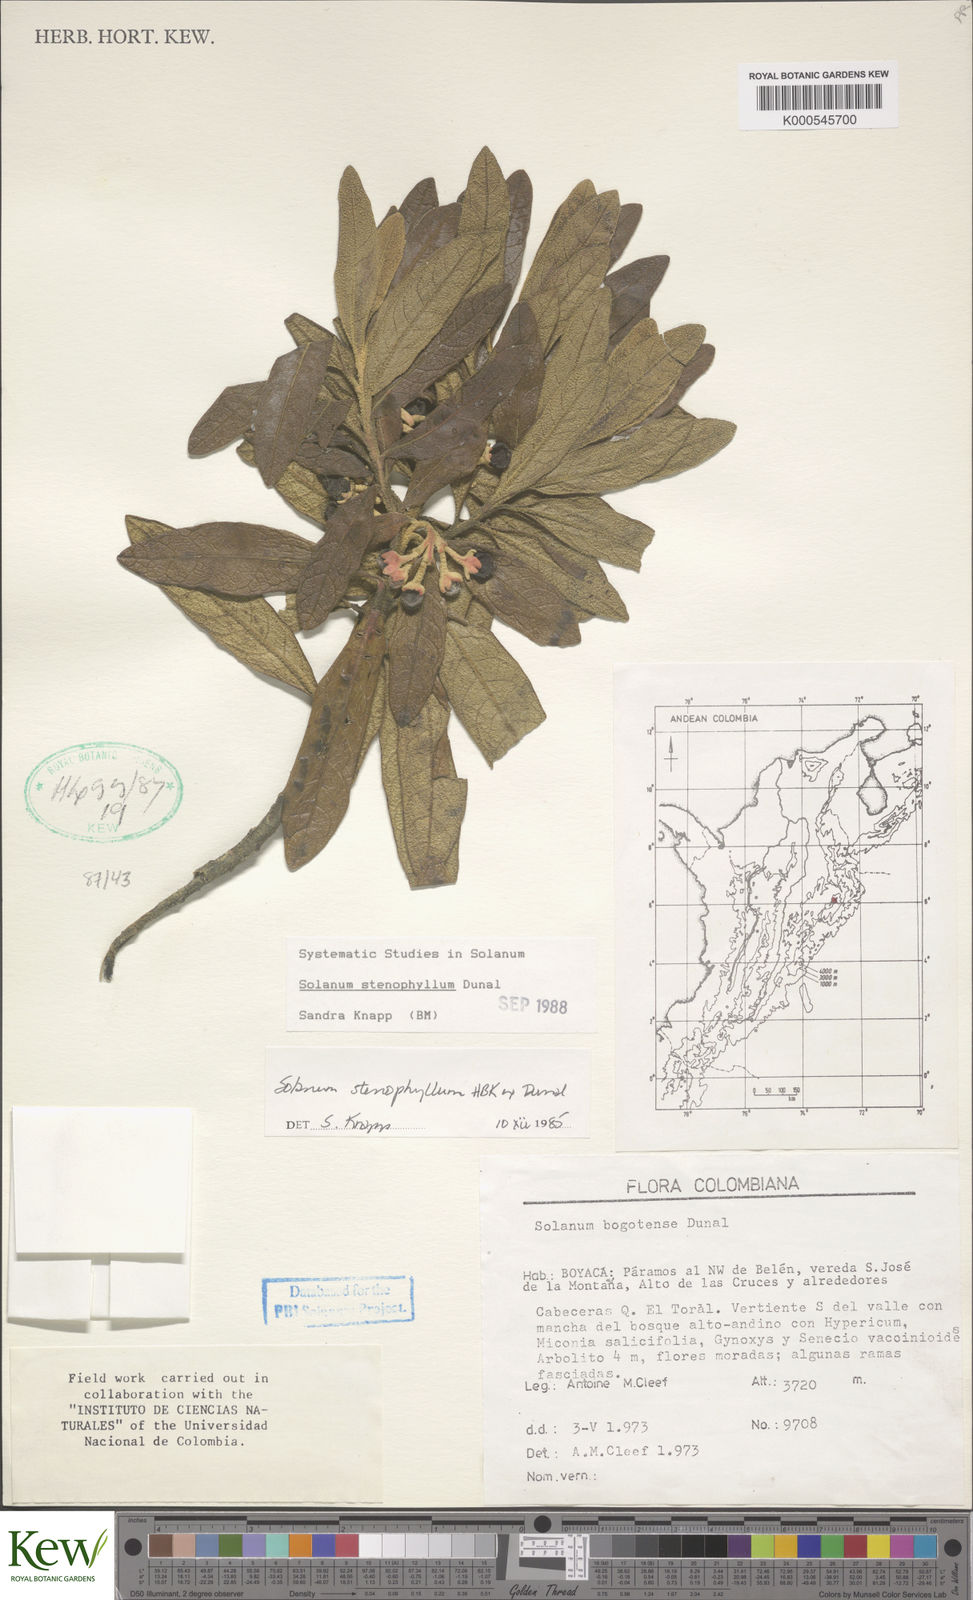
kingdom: Plantae
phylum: Tracheophyta
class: Magnoliopsida
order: Solanales
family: Solanaceae
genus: Solanum
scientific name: Solanum stenophyllum
